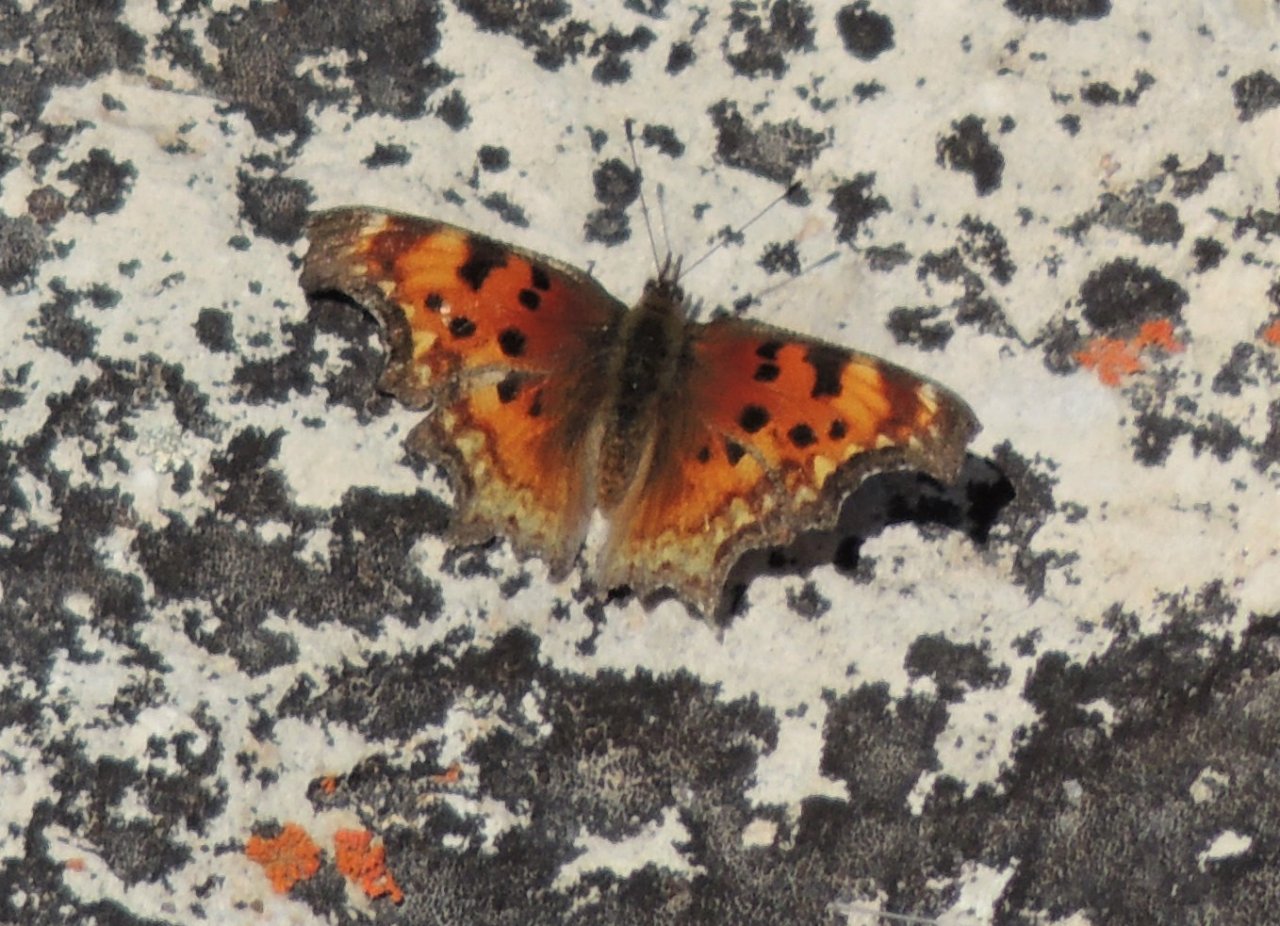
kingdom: Animalia
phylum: Arthropoda
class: Insecta
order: Lepidoptera
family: Nymphalidae
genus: Polygonia
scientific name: Polygonia gracilis
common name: Hoary Comma
